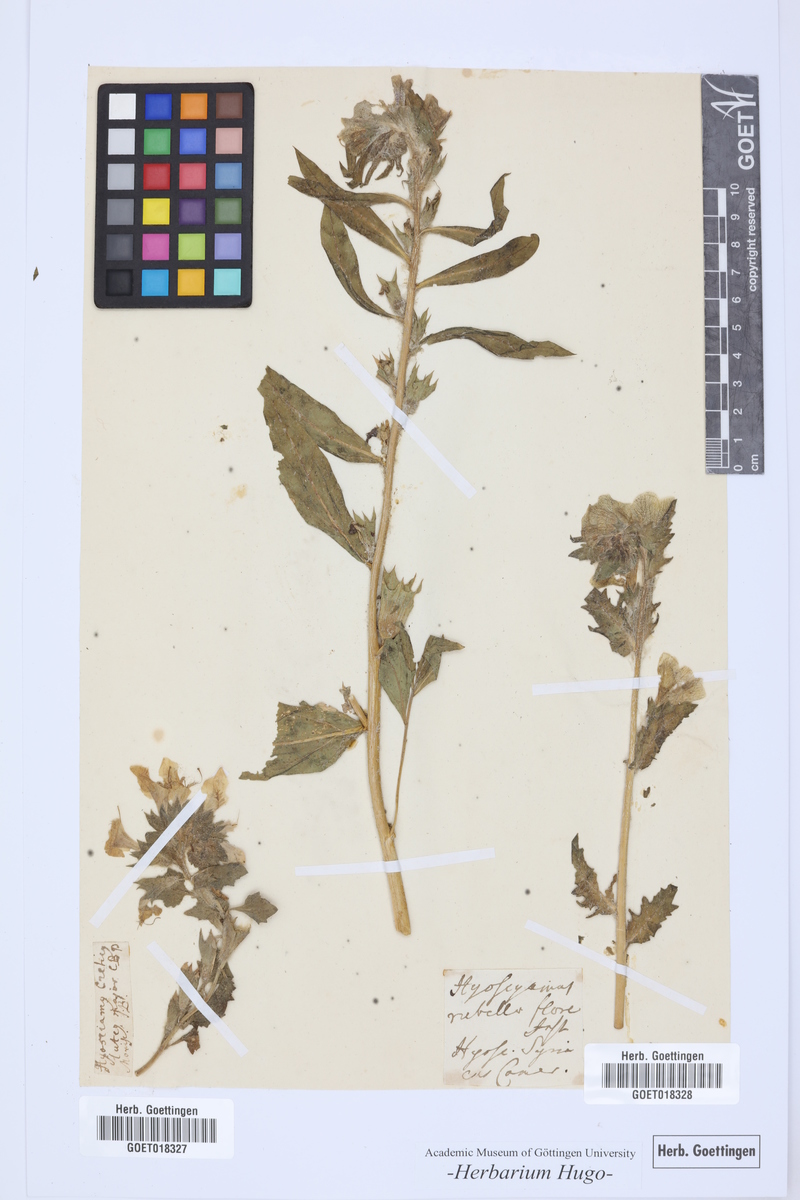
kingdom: Plantae
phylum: Tracheophyta
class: Magnoliopsida
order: Solanales
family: Solanaceae
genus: Hyoscyamus
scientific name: Hyoscyamus aureus
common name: Golden henbane
